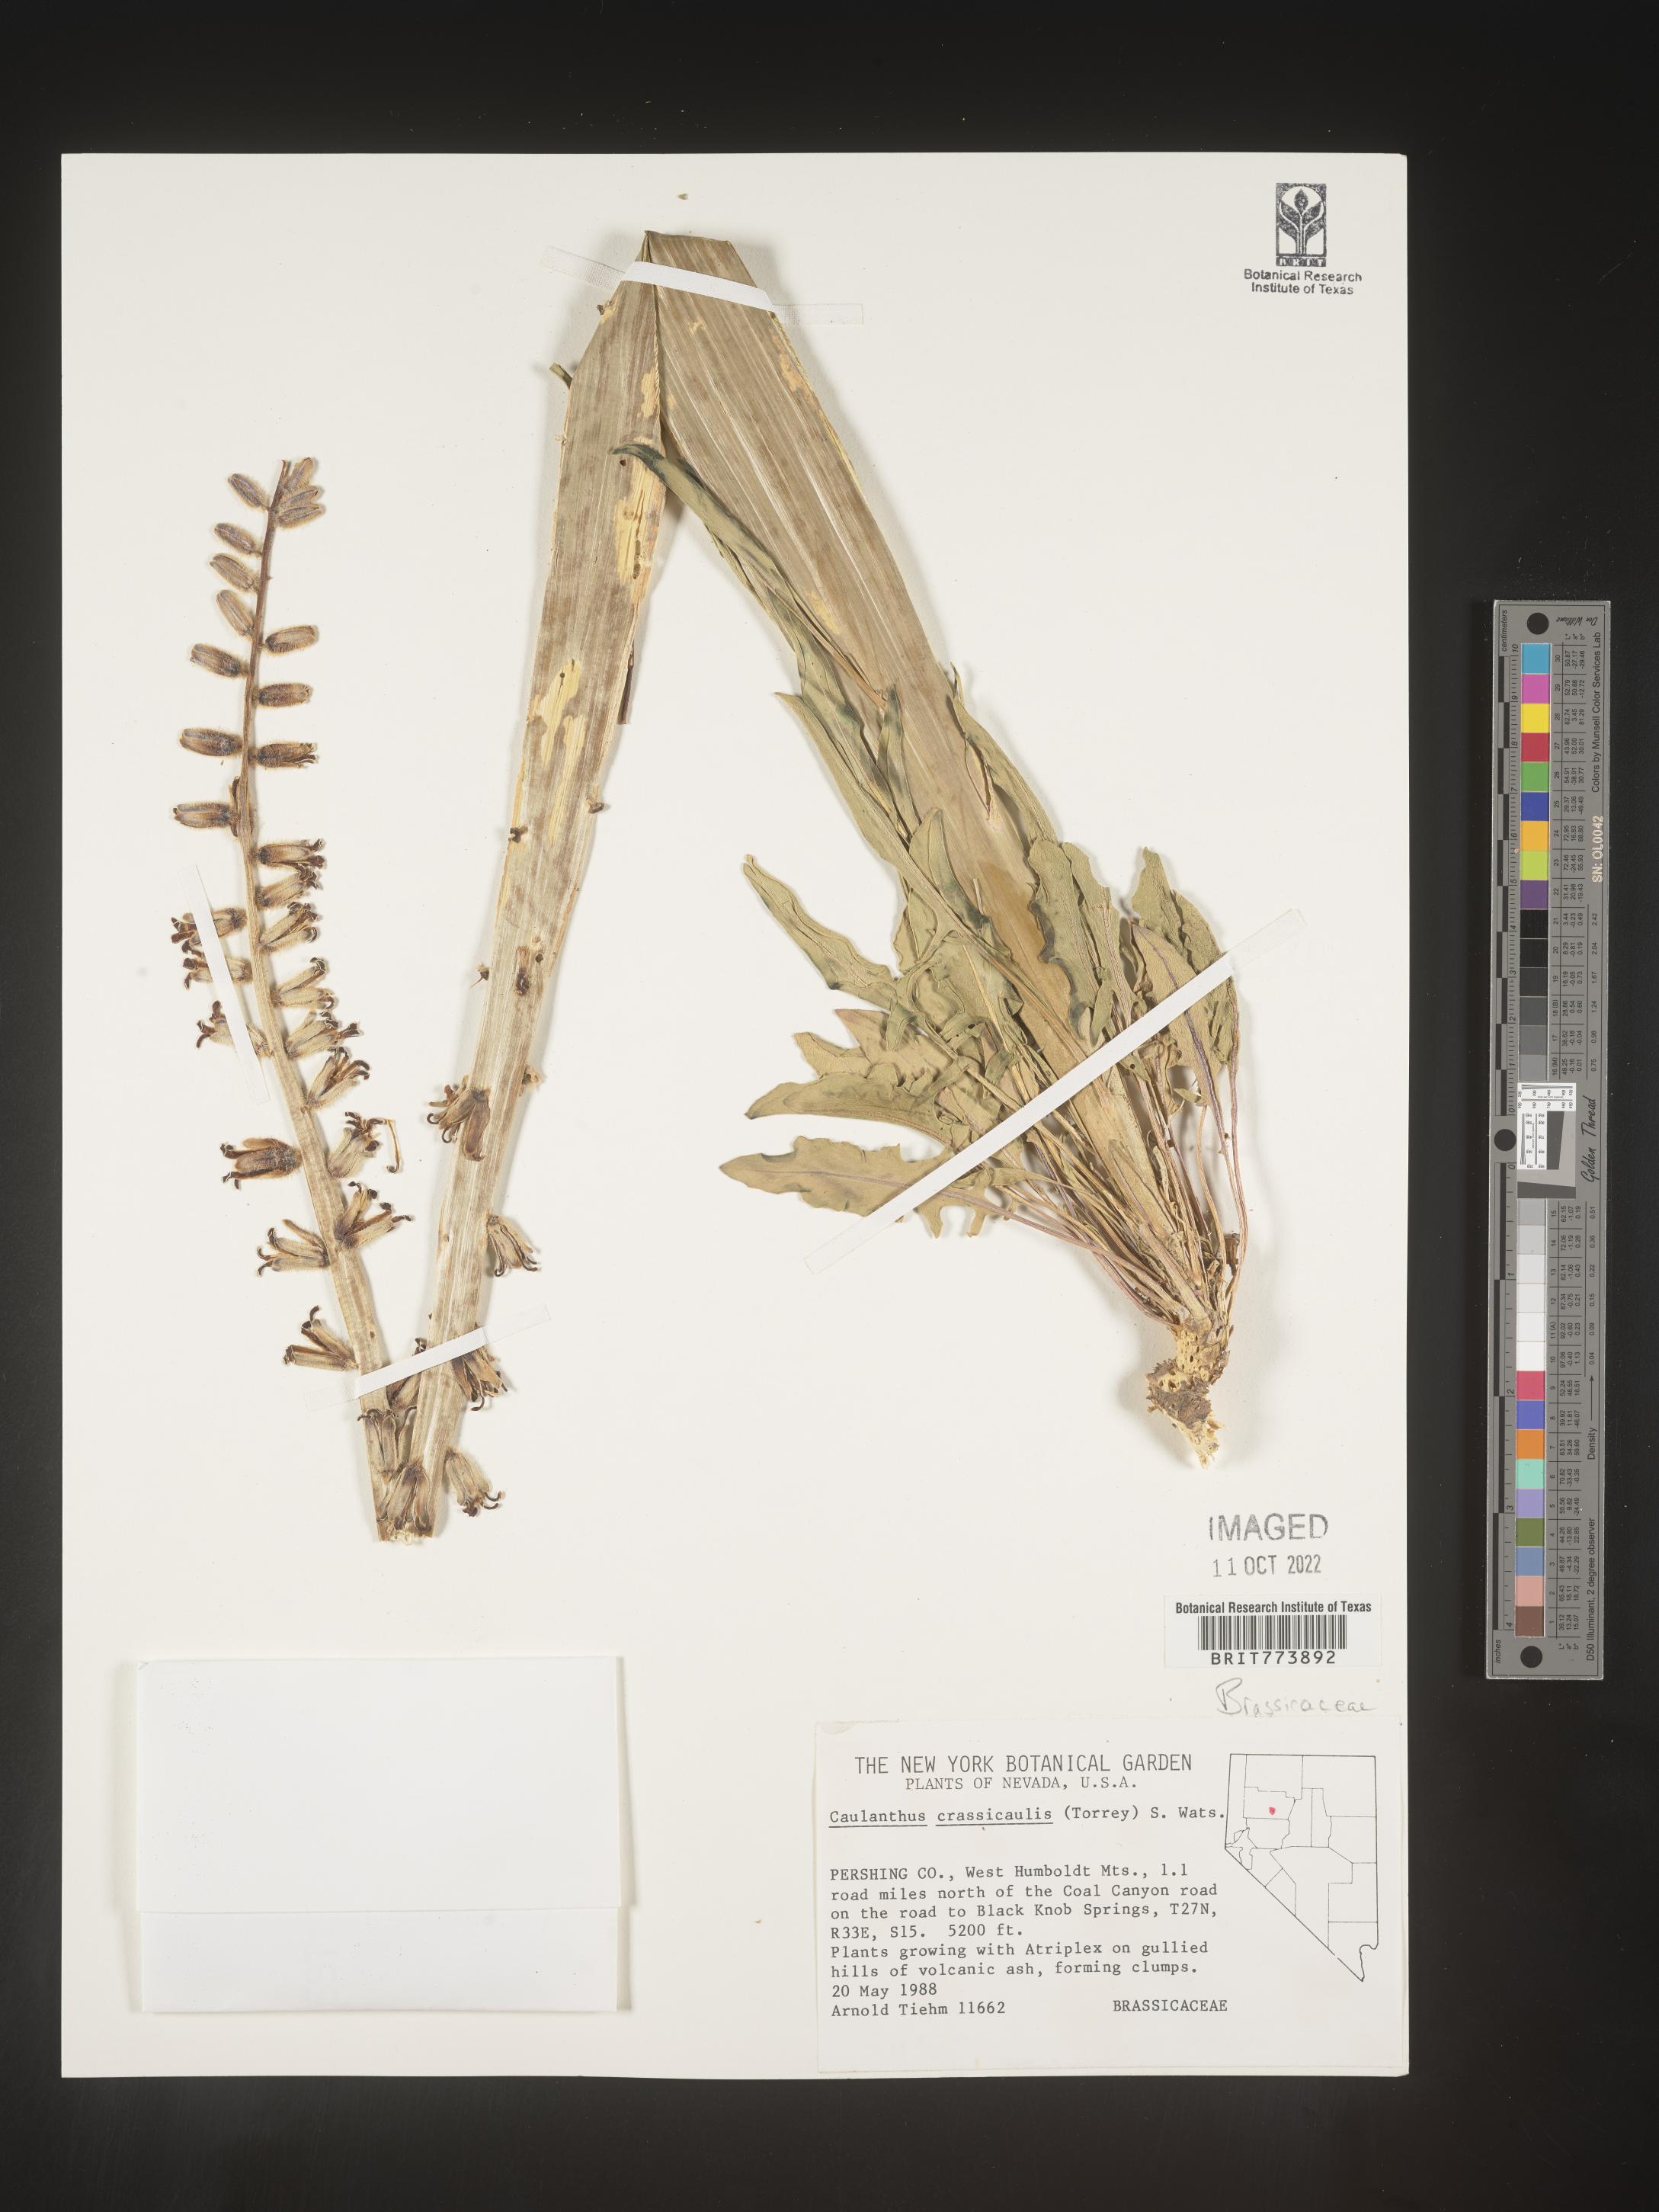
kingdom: Plantae
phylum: Tracheophyta
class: Magnoliopsida
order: Brassicales
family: Brassicaceae
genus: Streptanthus
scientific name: Streptanthus
